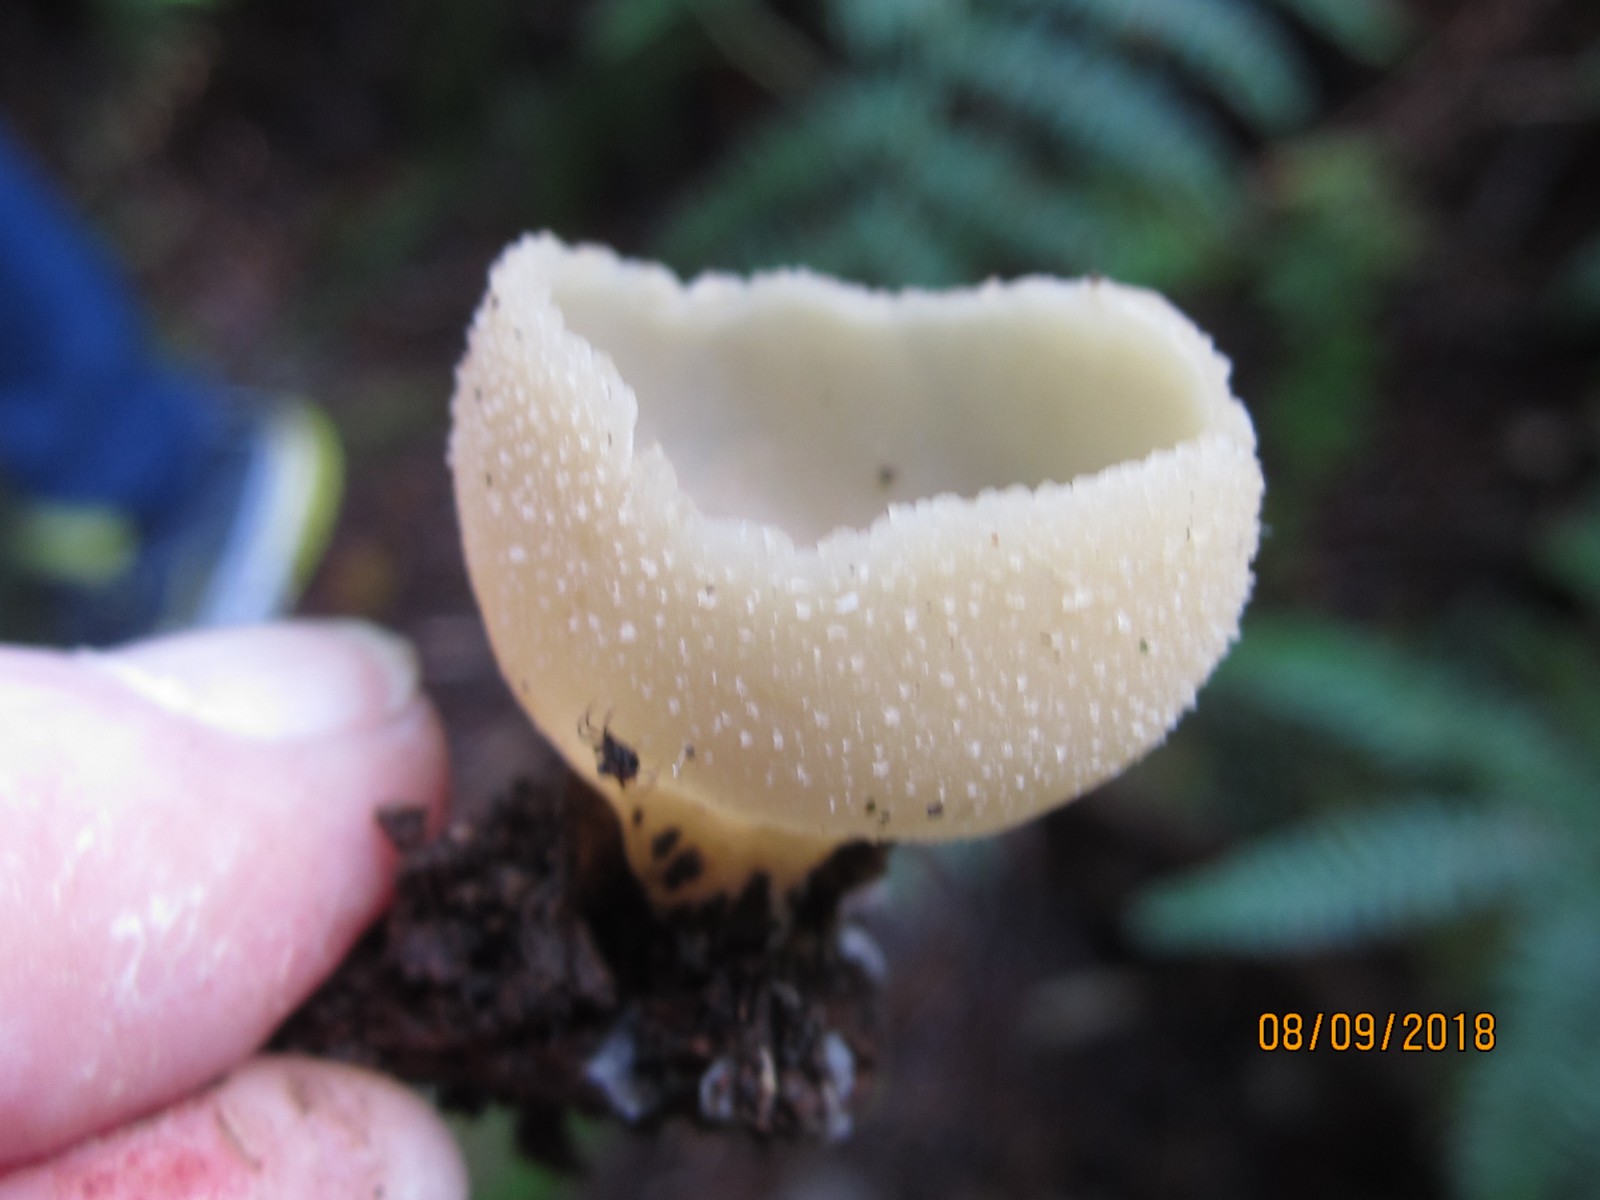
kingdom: Fungi
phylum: Ascomycota
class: Pezizomycetes
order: Pezizales
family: Pezizaceae
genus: Peziza
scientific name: Peziza varia
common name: Ved-bægersvamp
